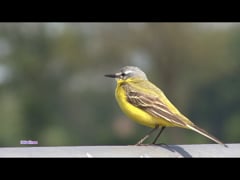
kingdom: Animalia
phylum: Chordata
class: Aves
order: Passeriformes
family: Motacillidae
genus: Motacilla
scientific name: Motacilla flava
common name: Western yellow wagtail
